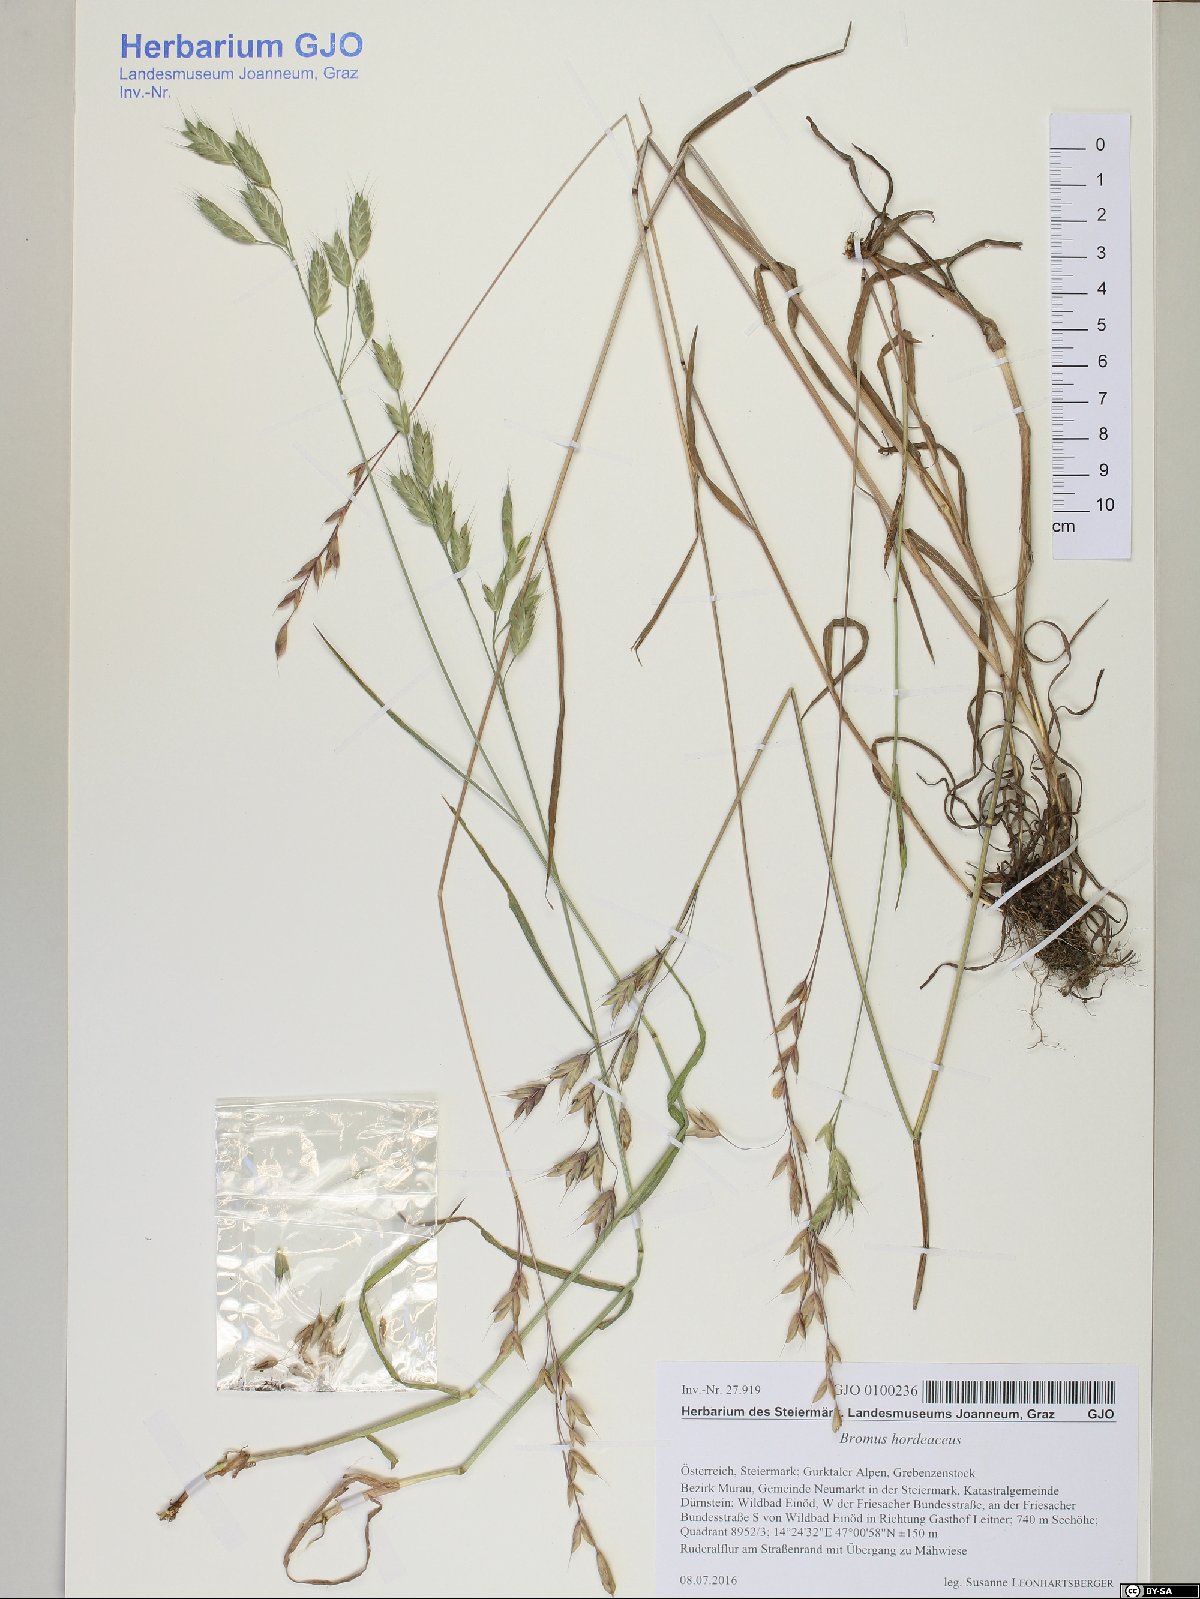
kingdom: Plantae
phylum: Tracheophyta
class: Liliopsida
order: Poales
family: Poaceae
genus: Bromus
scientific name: Bromus hordeaceus
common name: Soft brome
